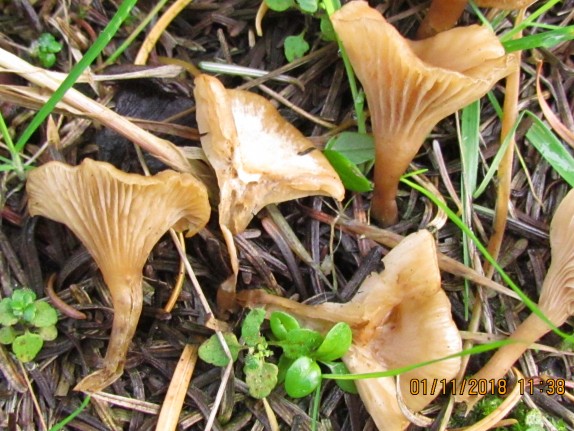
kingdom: Fungi
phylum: Basidiomycota
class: Agaricomycetes
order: Agaricales
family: Tricholomataceae
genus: Clitocybe
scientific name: Clitocybe fragrans
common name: vellugtende tragthat
